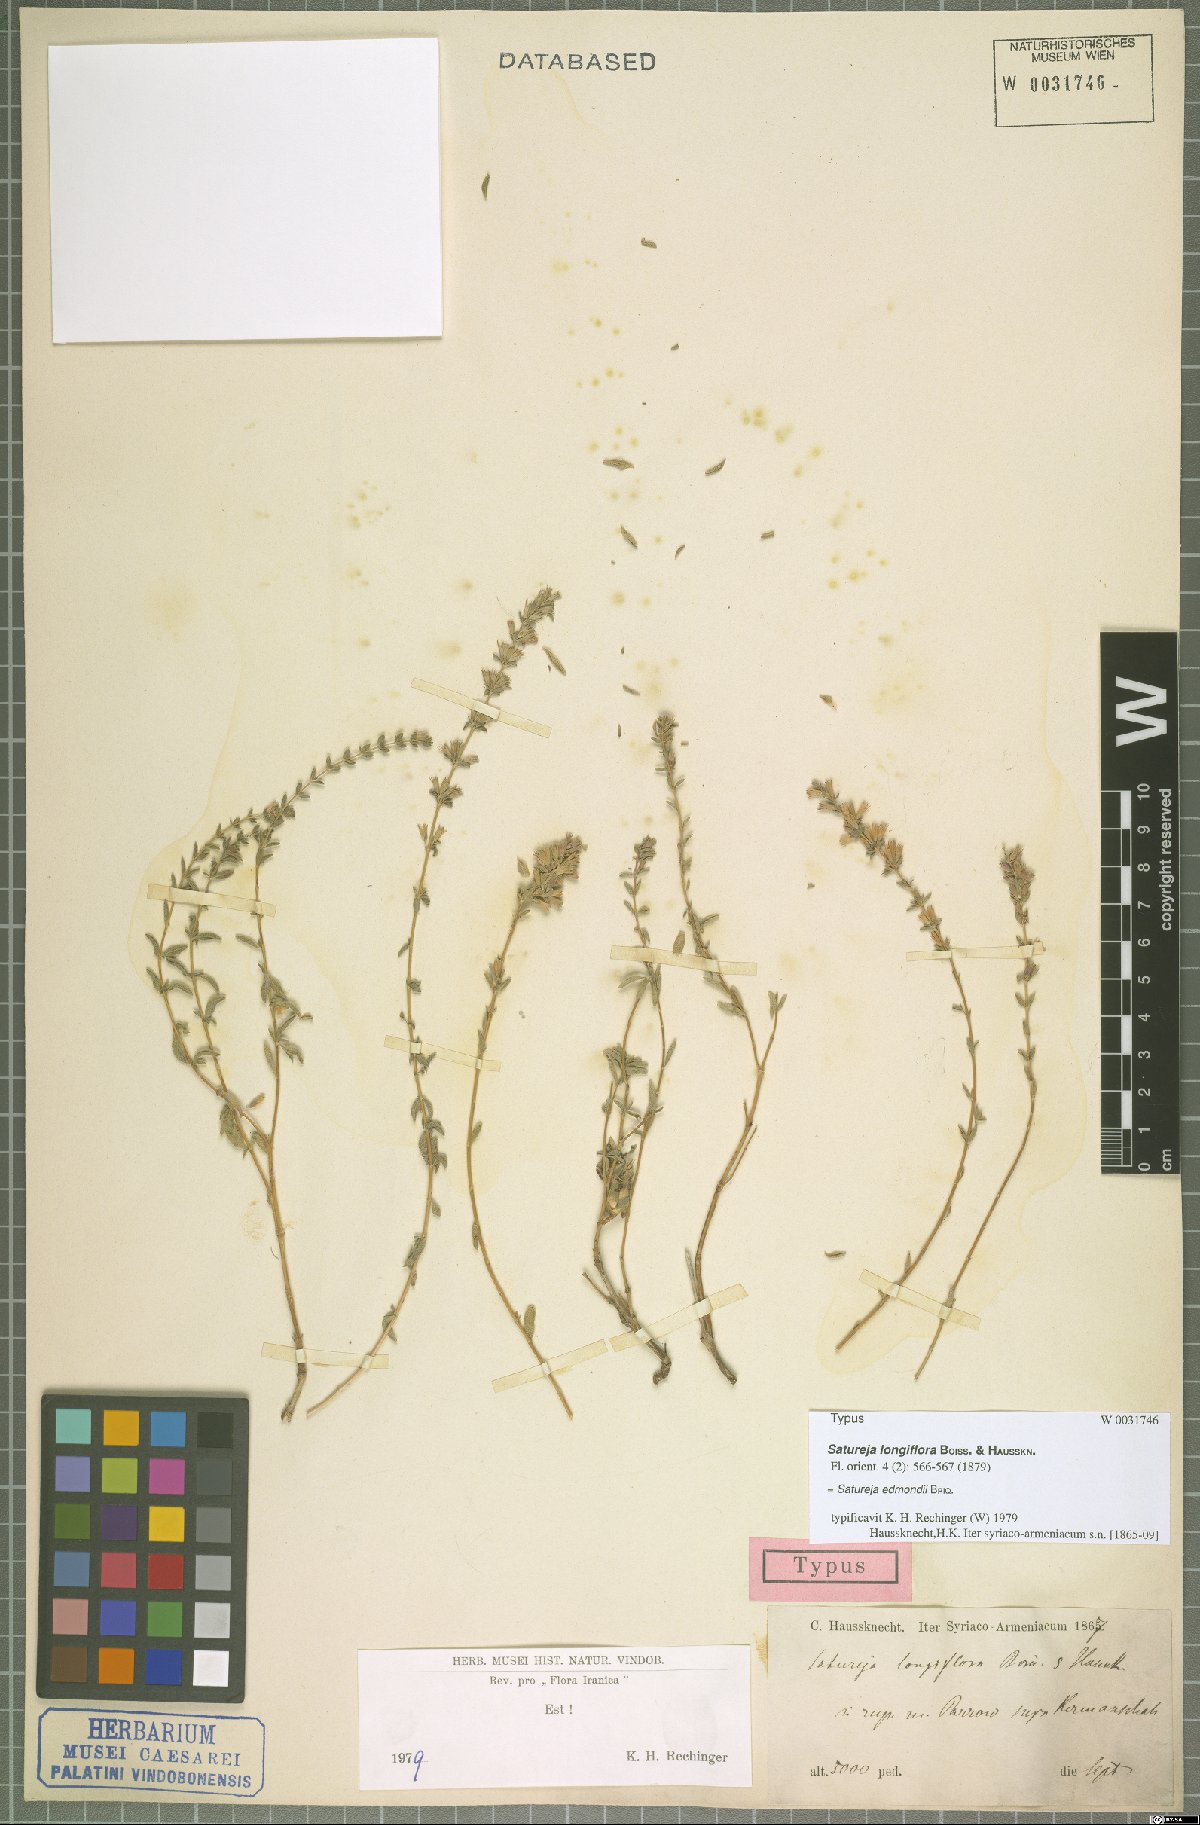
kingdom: Plantae
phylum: Tracheophyta
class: Magnoliopsida
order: Lamiales
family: Lamiaceae
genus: Satureja
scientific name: Satureja edmondii
